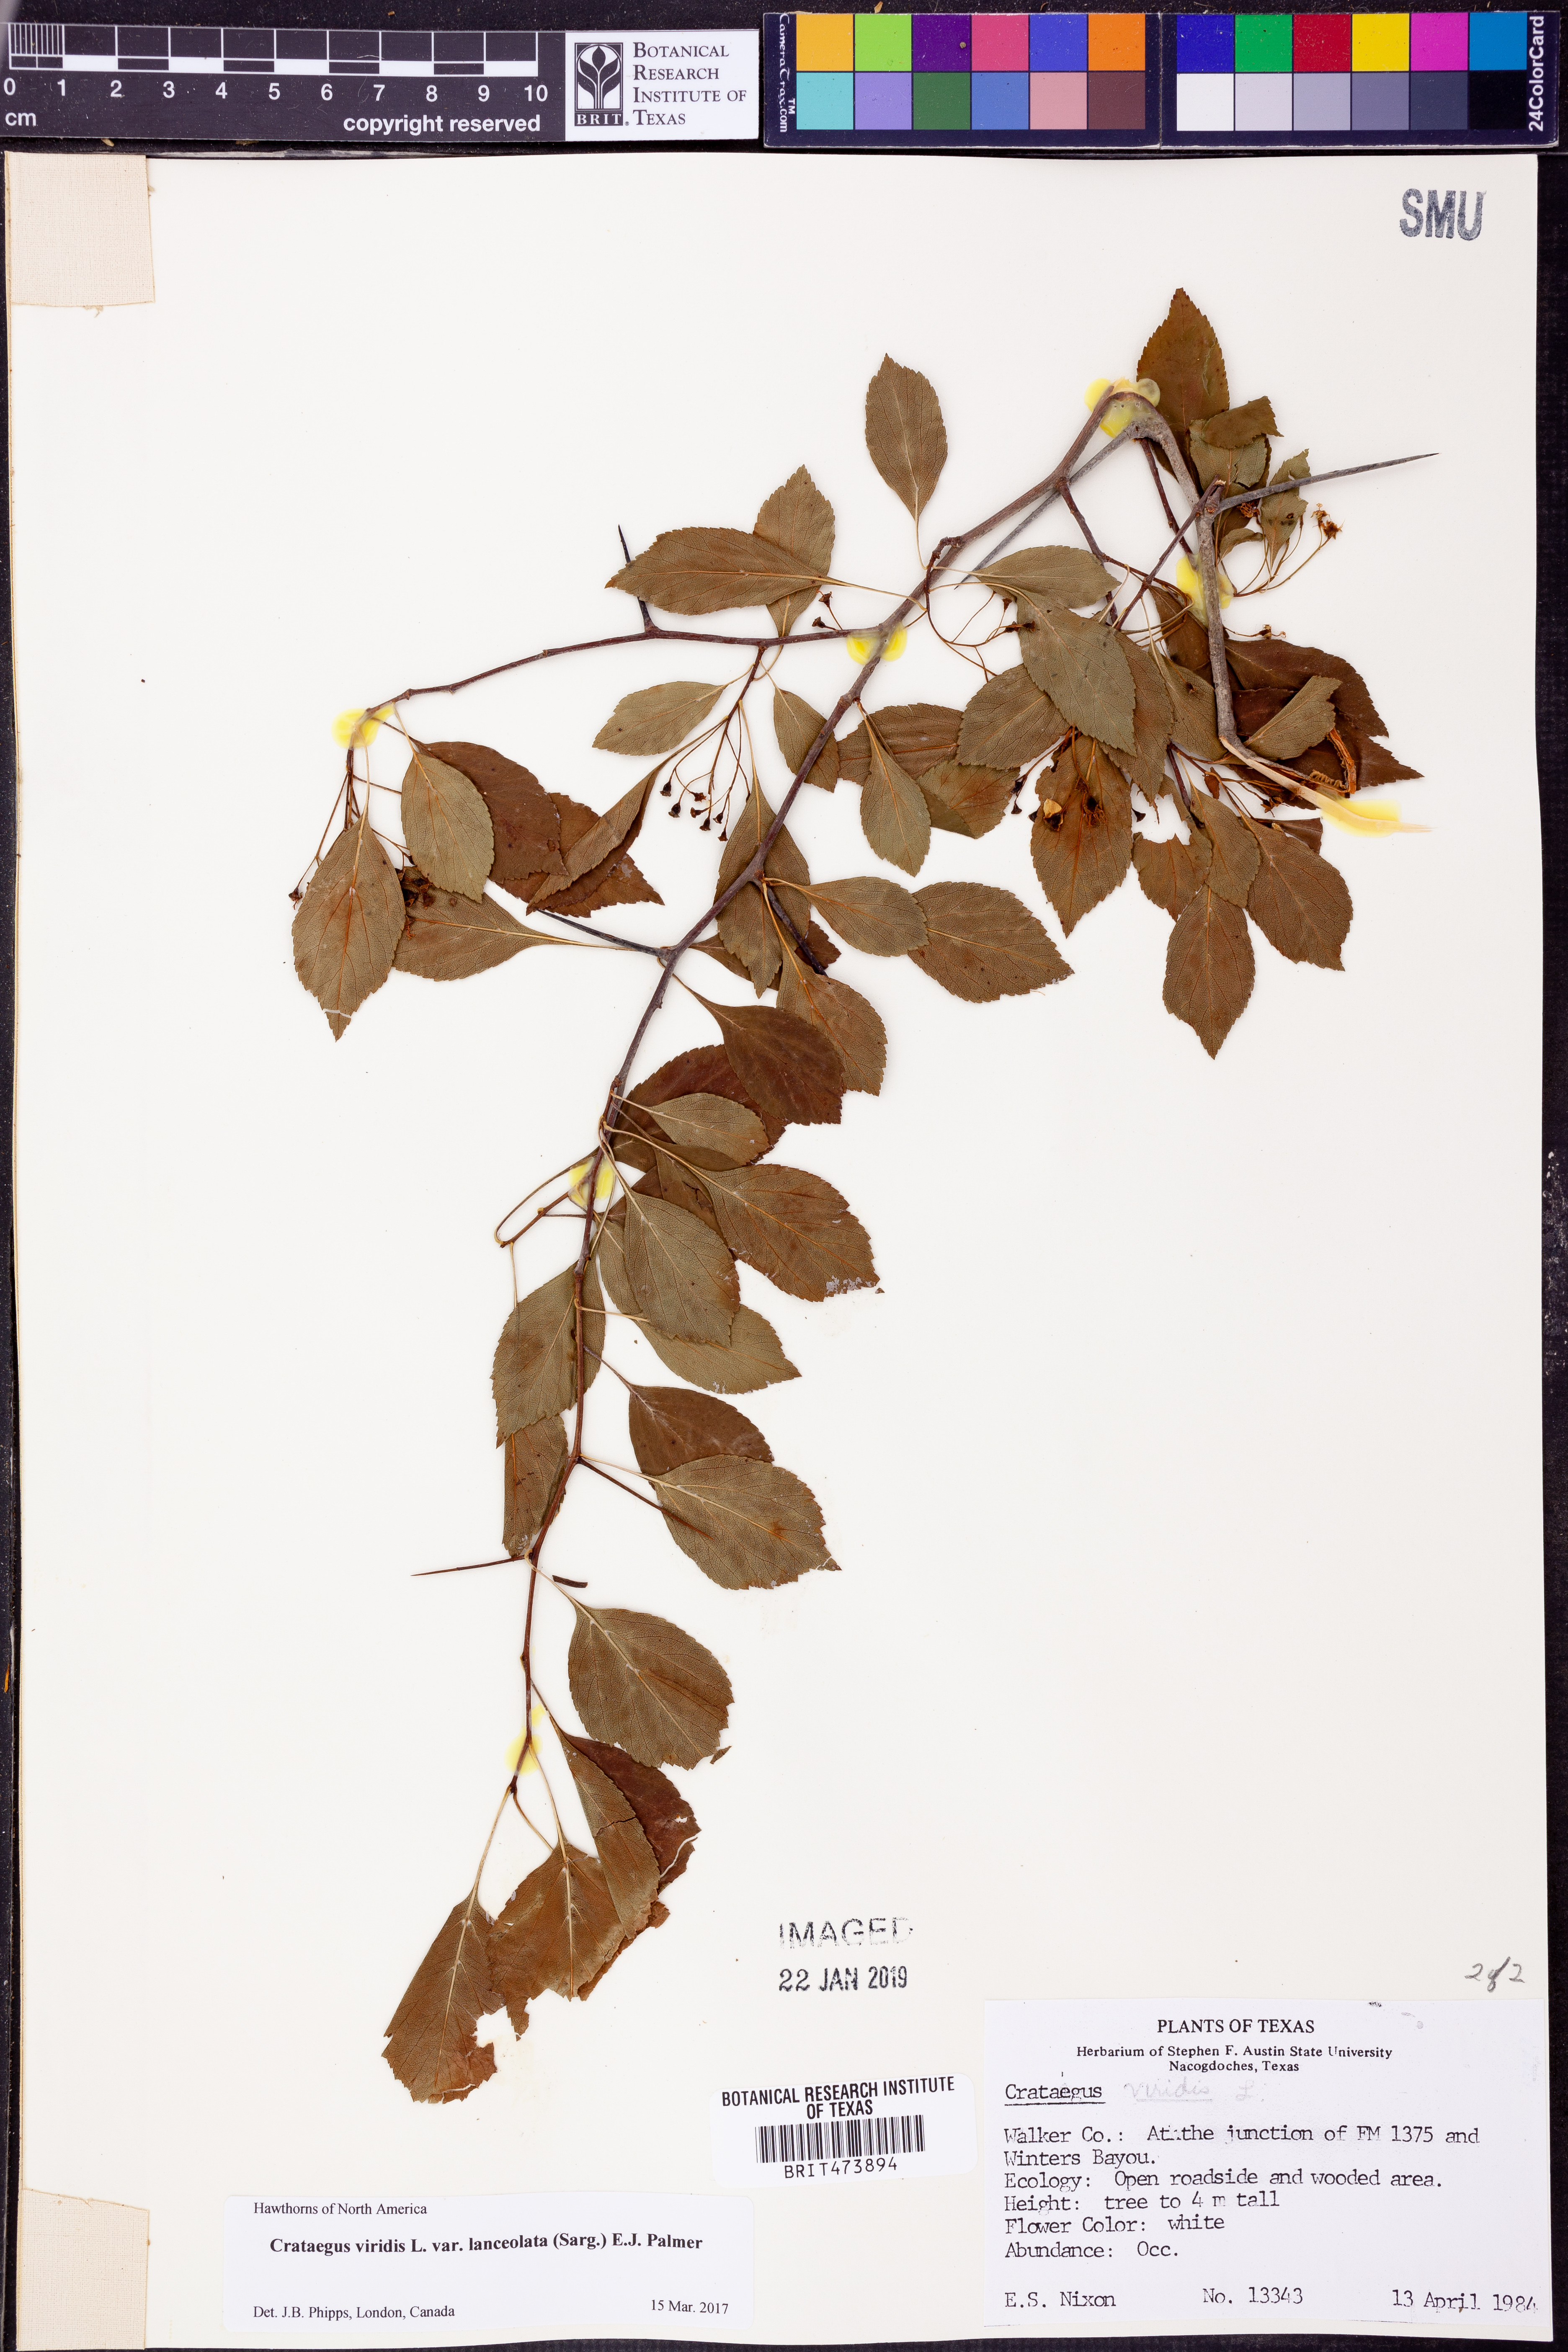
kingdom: Plantae
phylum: Tracheophyta
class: Magnoliopsida
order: Rosales
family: Rosaceae
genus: Crataegus
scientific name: Crataegus viridis
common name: Southernthorn
